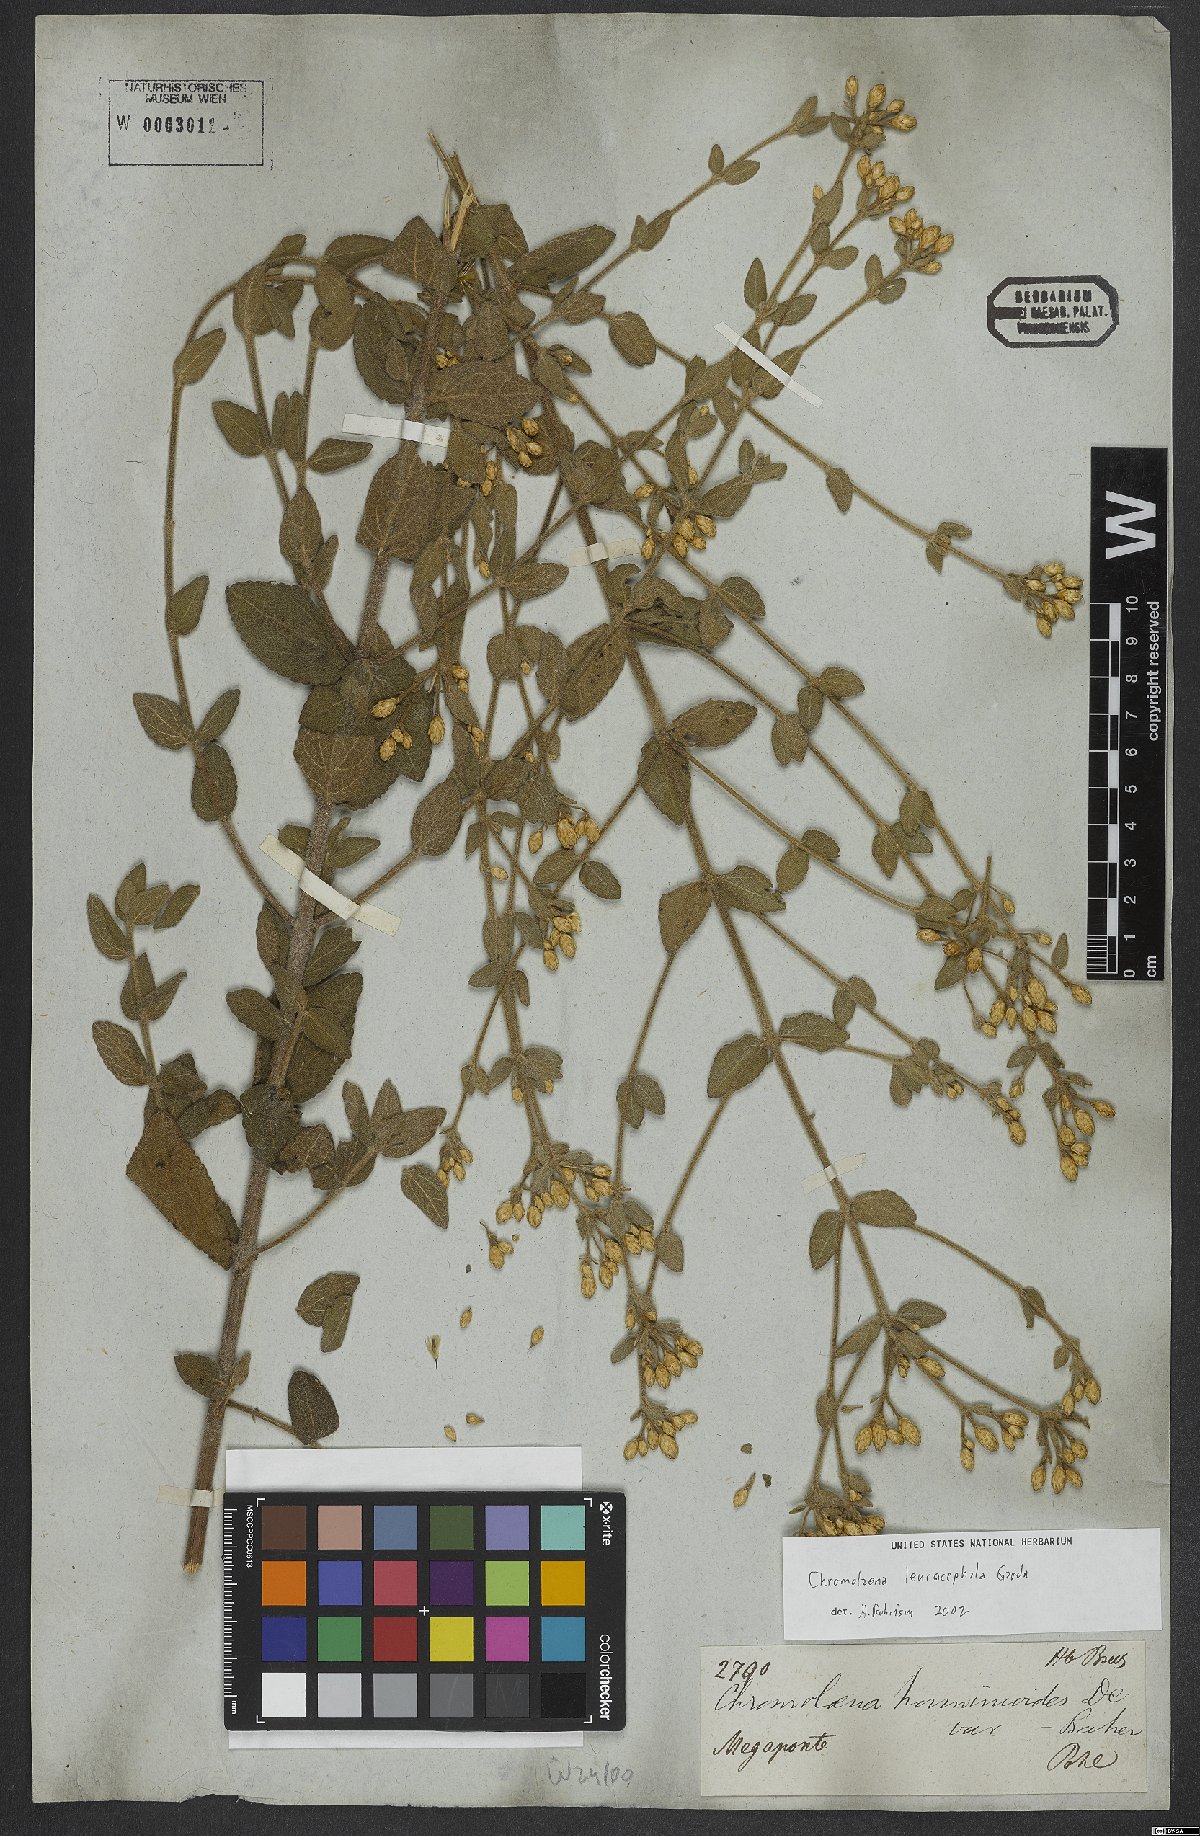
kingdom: Plantae
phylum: Tracheophyta
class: Magnoliopsida
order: Asterales
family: Asteraceae
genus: Chromolaena
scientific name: Chromolaena leucocephala
